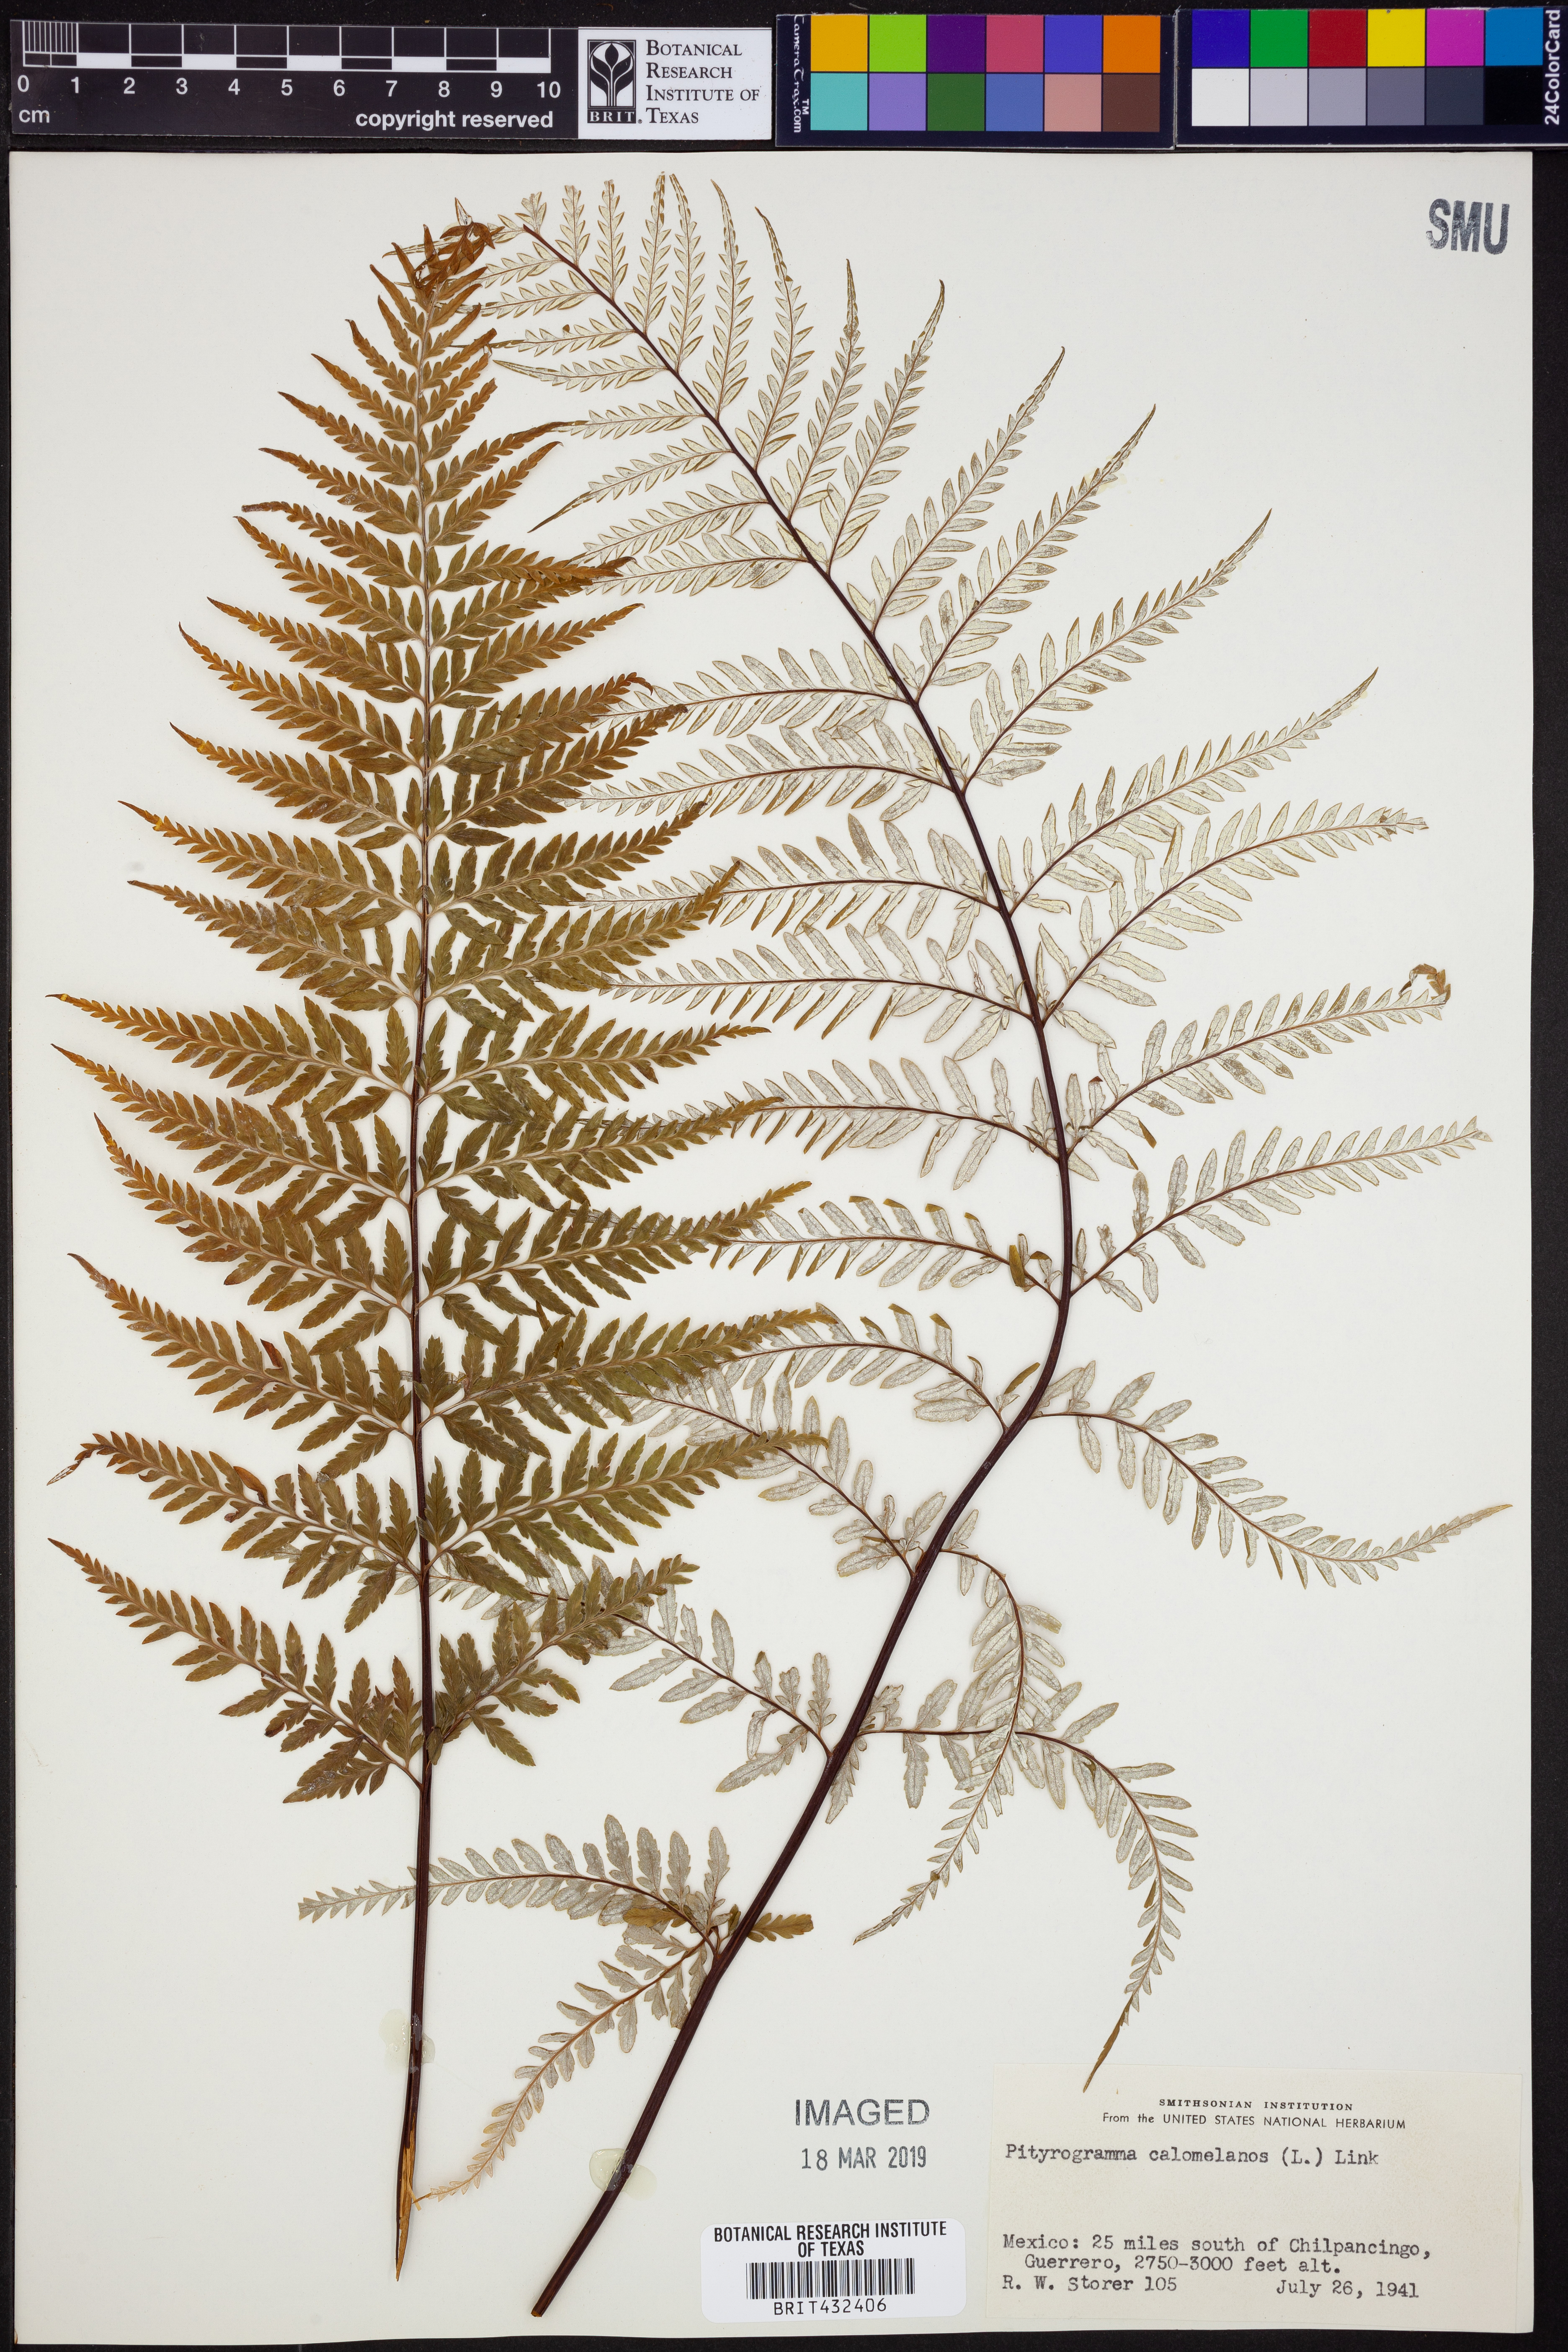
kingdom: Plantae
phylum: Tracheophyta
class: Polypodiopsida
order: Polypodiales
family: Pteridaceae
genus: Pityrogramma
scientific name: Pityrogramma calomelanos
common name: Dixie silverback fern
